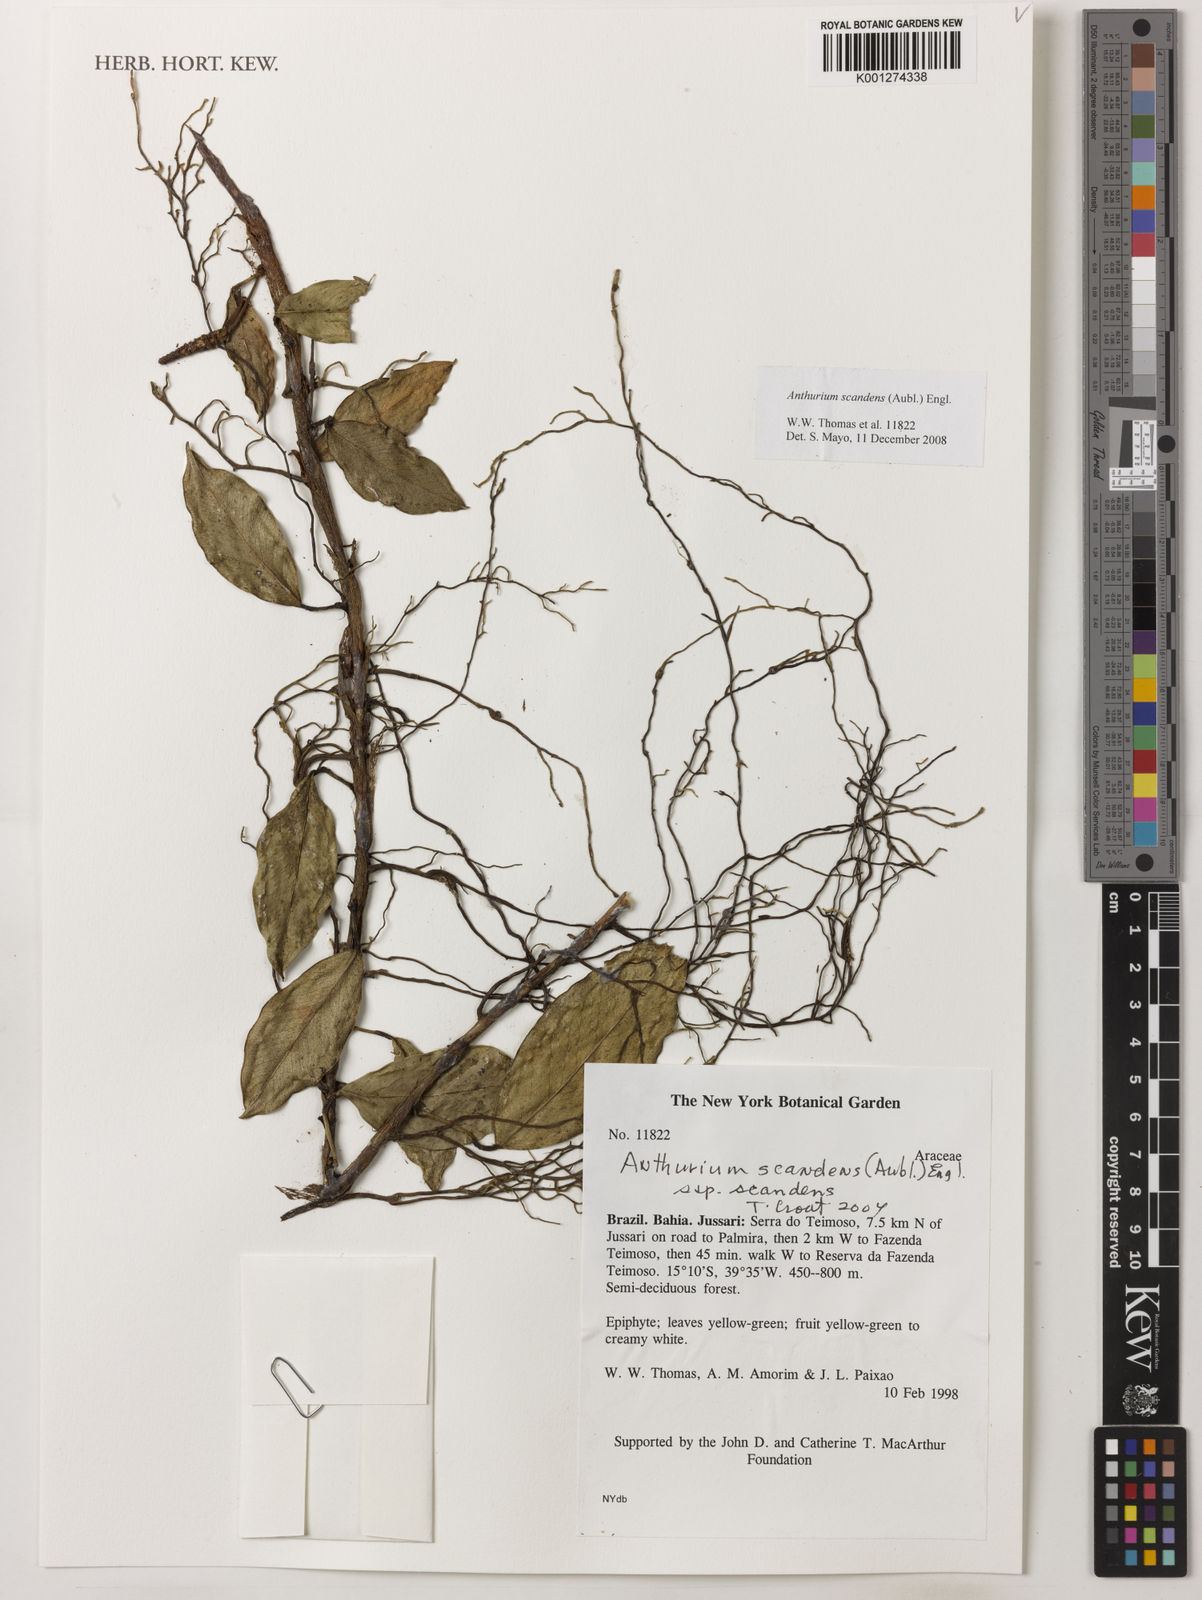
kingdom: Plantae
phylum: Tracheophyta
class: Liliopsida
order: Alismatales
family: Araceae
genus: Anthurium
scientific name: Anthurium scandens
